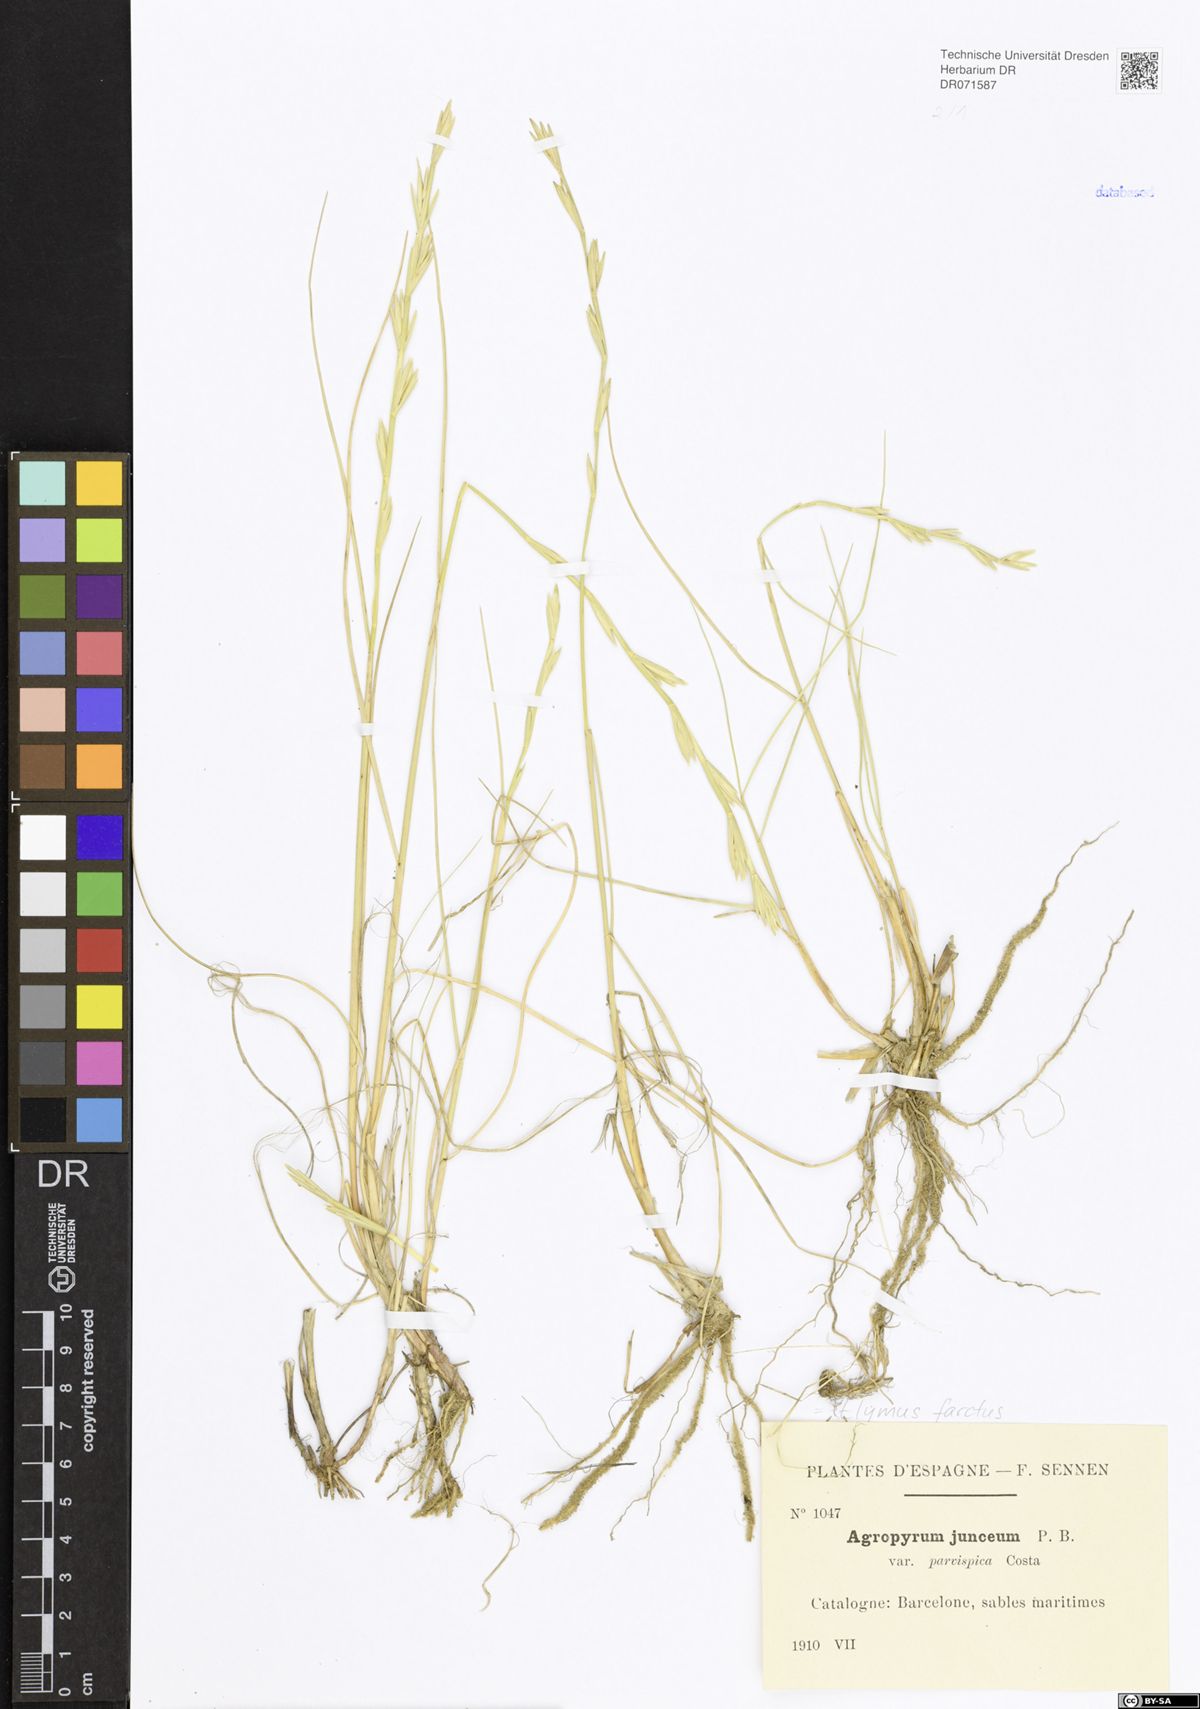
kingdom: Plantae
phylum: Tracheophyta
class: Liliopsida
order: Poales
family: Poaceae
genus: Thinopyrum
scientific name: Thinopyrum junceum
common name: Russian wheatgrass
